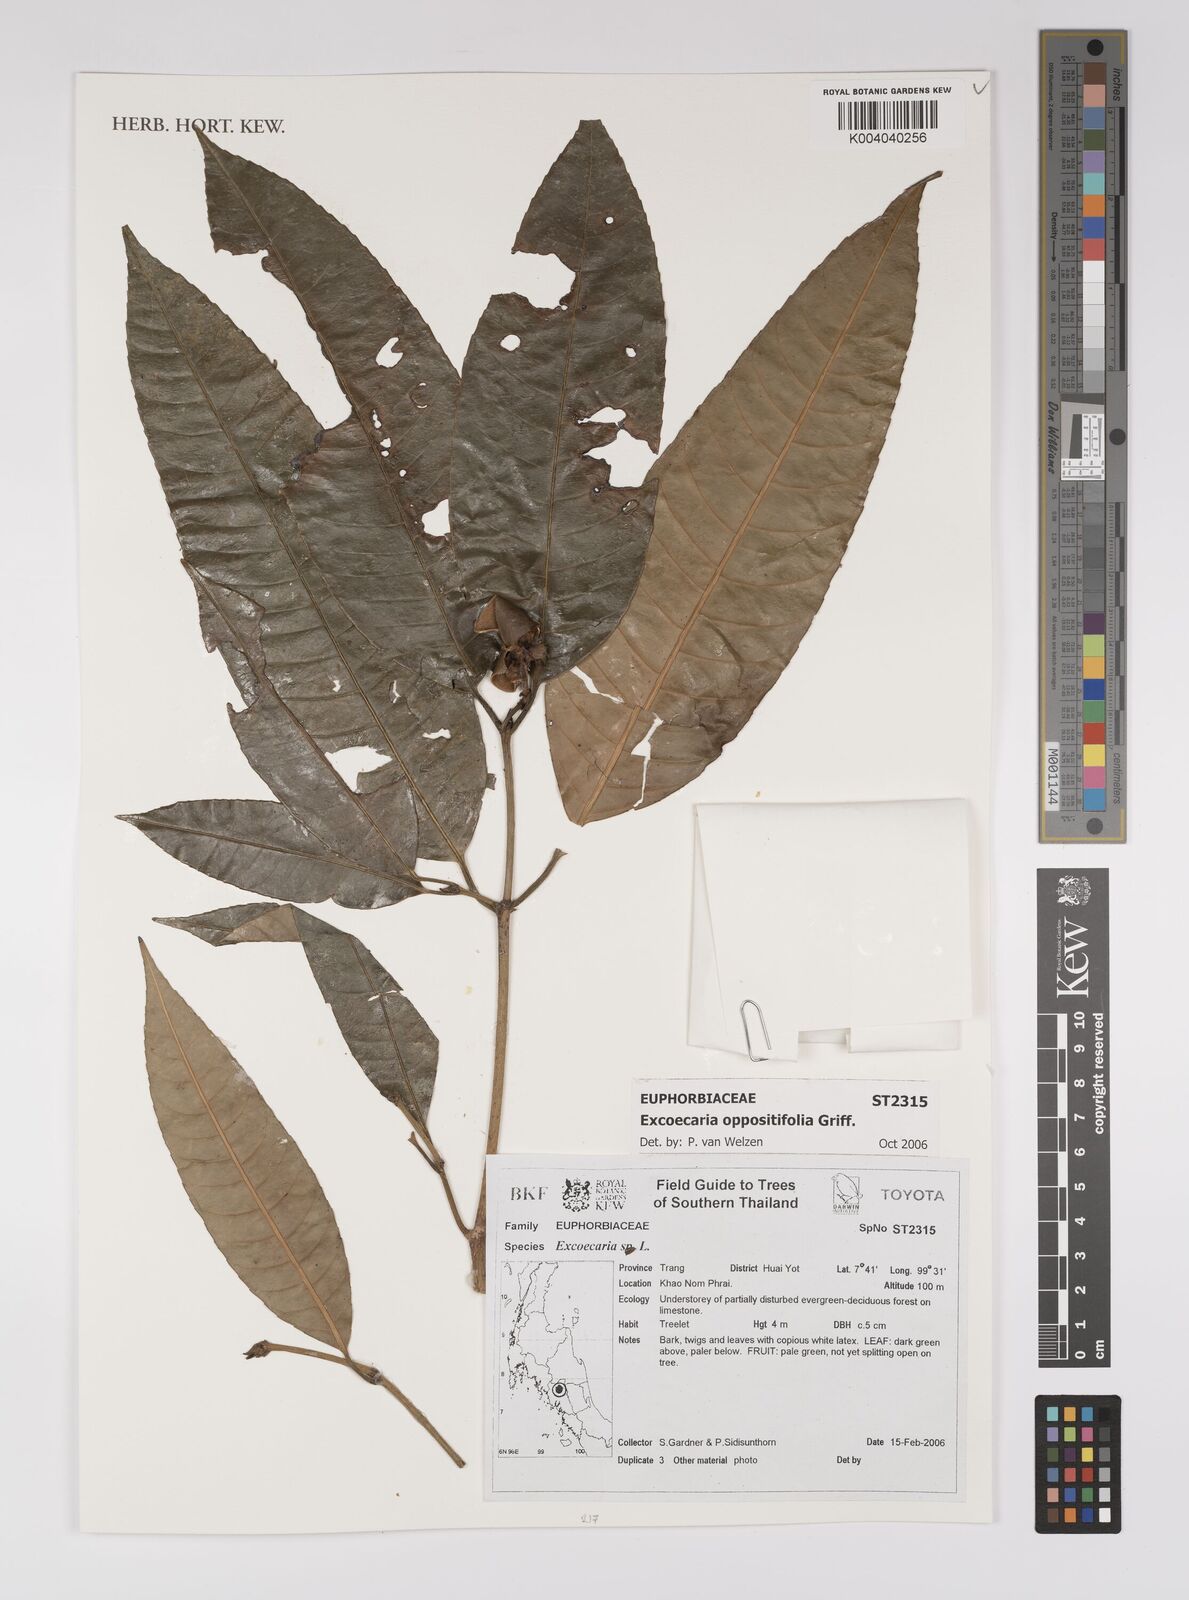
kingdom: Plantae
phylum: Tracheophyta
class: Magnoliopsida
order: Malpighiales
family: Euphorbiaceae
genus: Excoecaria
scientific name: Excoecaria oppositifolia
